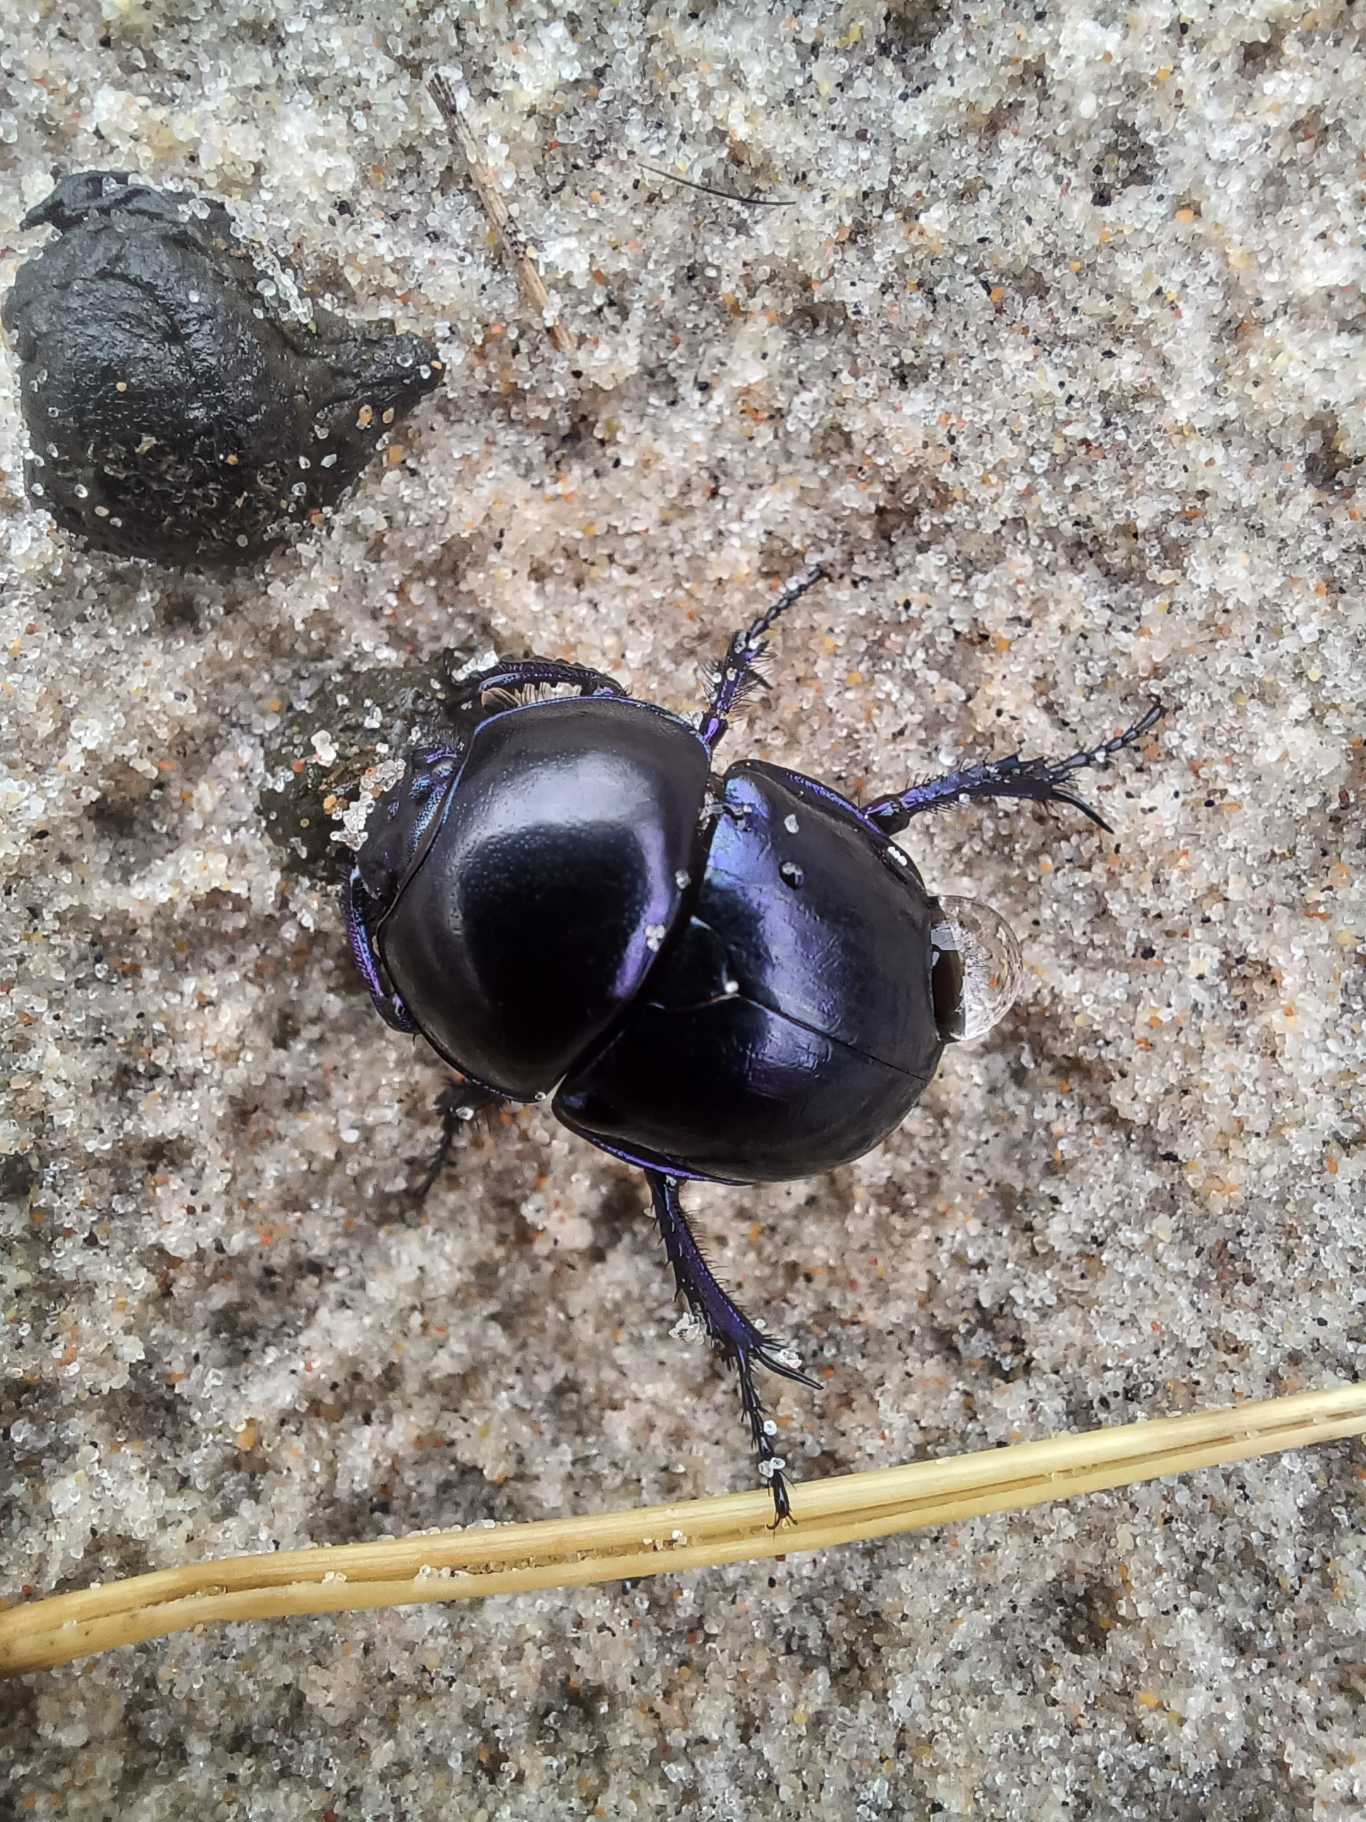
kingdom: Animalia
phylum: Arthropoda
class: Insecta
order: Coleoptera
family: Geotrupidae
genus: Anoplotrupes
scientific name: Anoplotrupes stercorosus
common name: Skovskarnbasse
